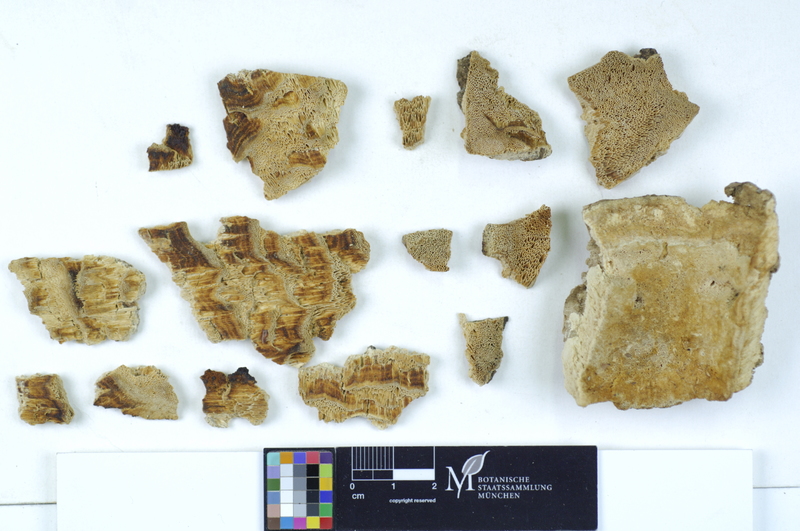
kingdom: Plantae
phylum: Tracheophyta
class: Magnoliopsida
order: Malpighiales
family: Salicaceae
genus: Populus
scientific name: Populus tremula
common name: European aspen
